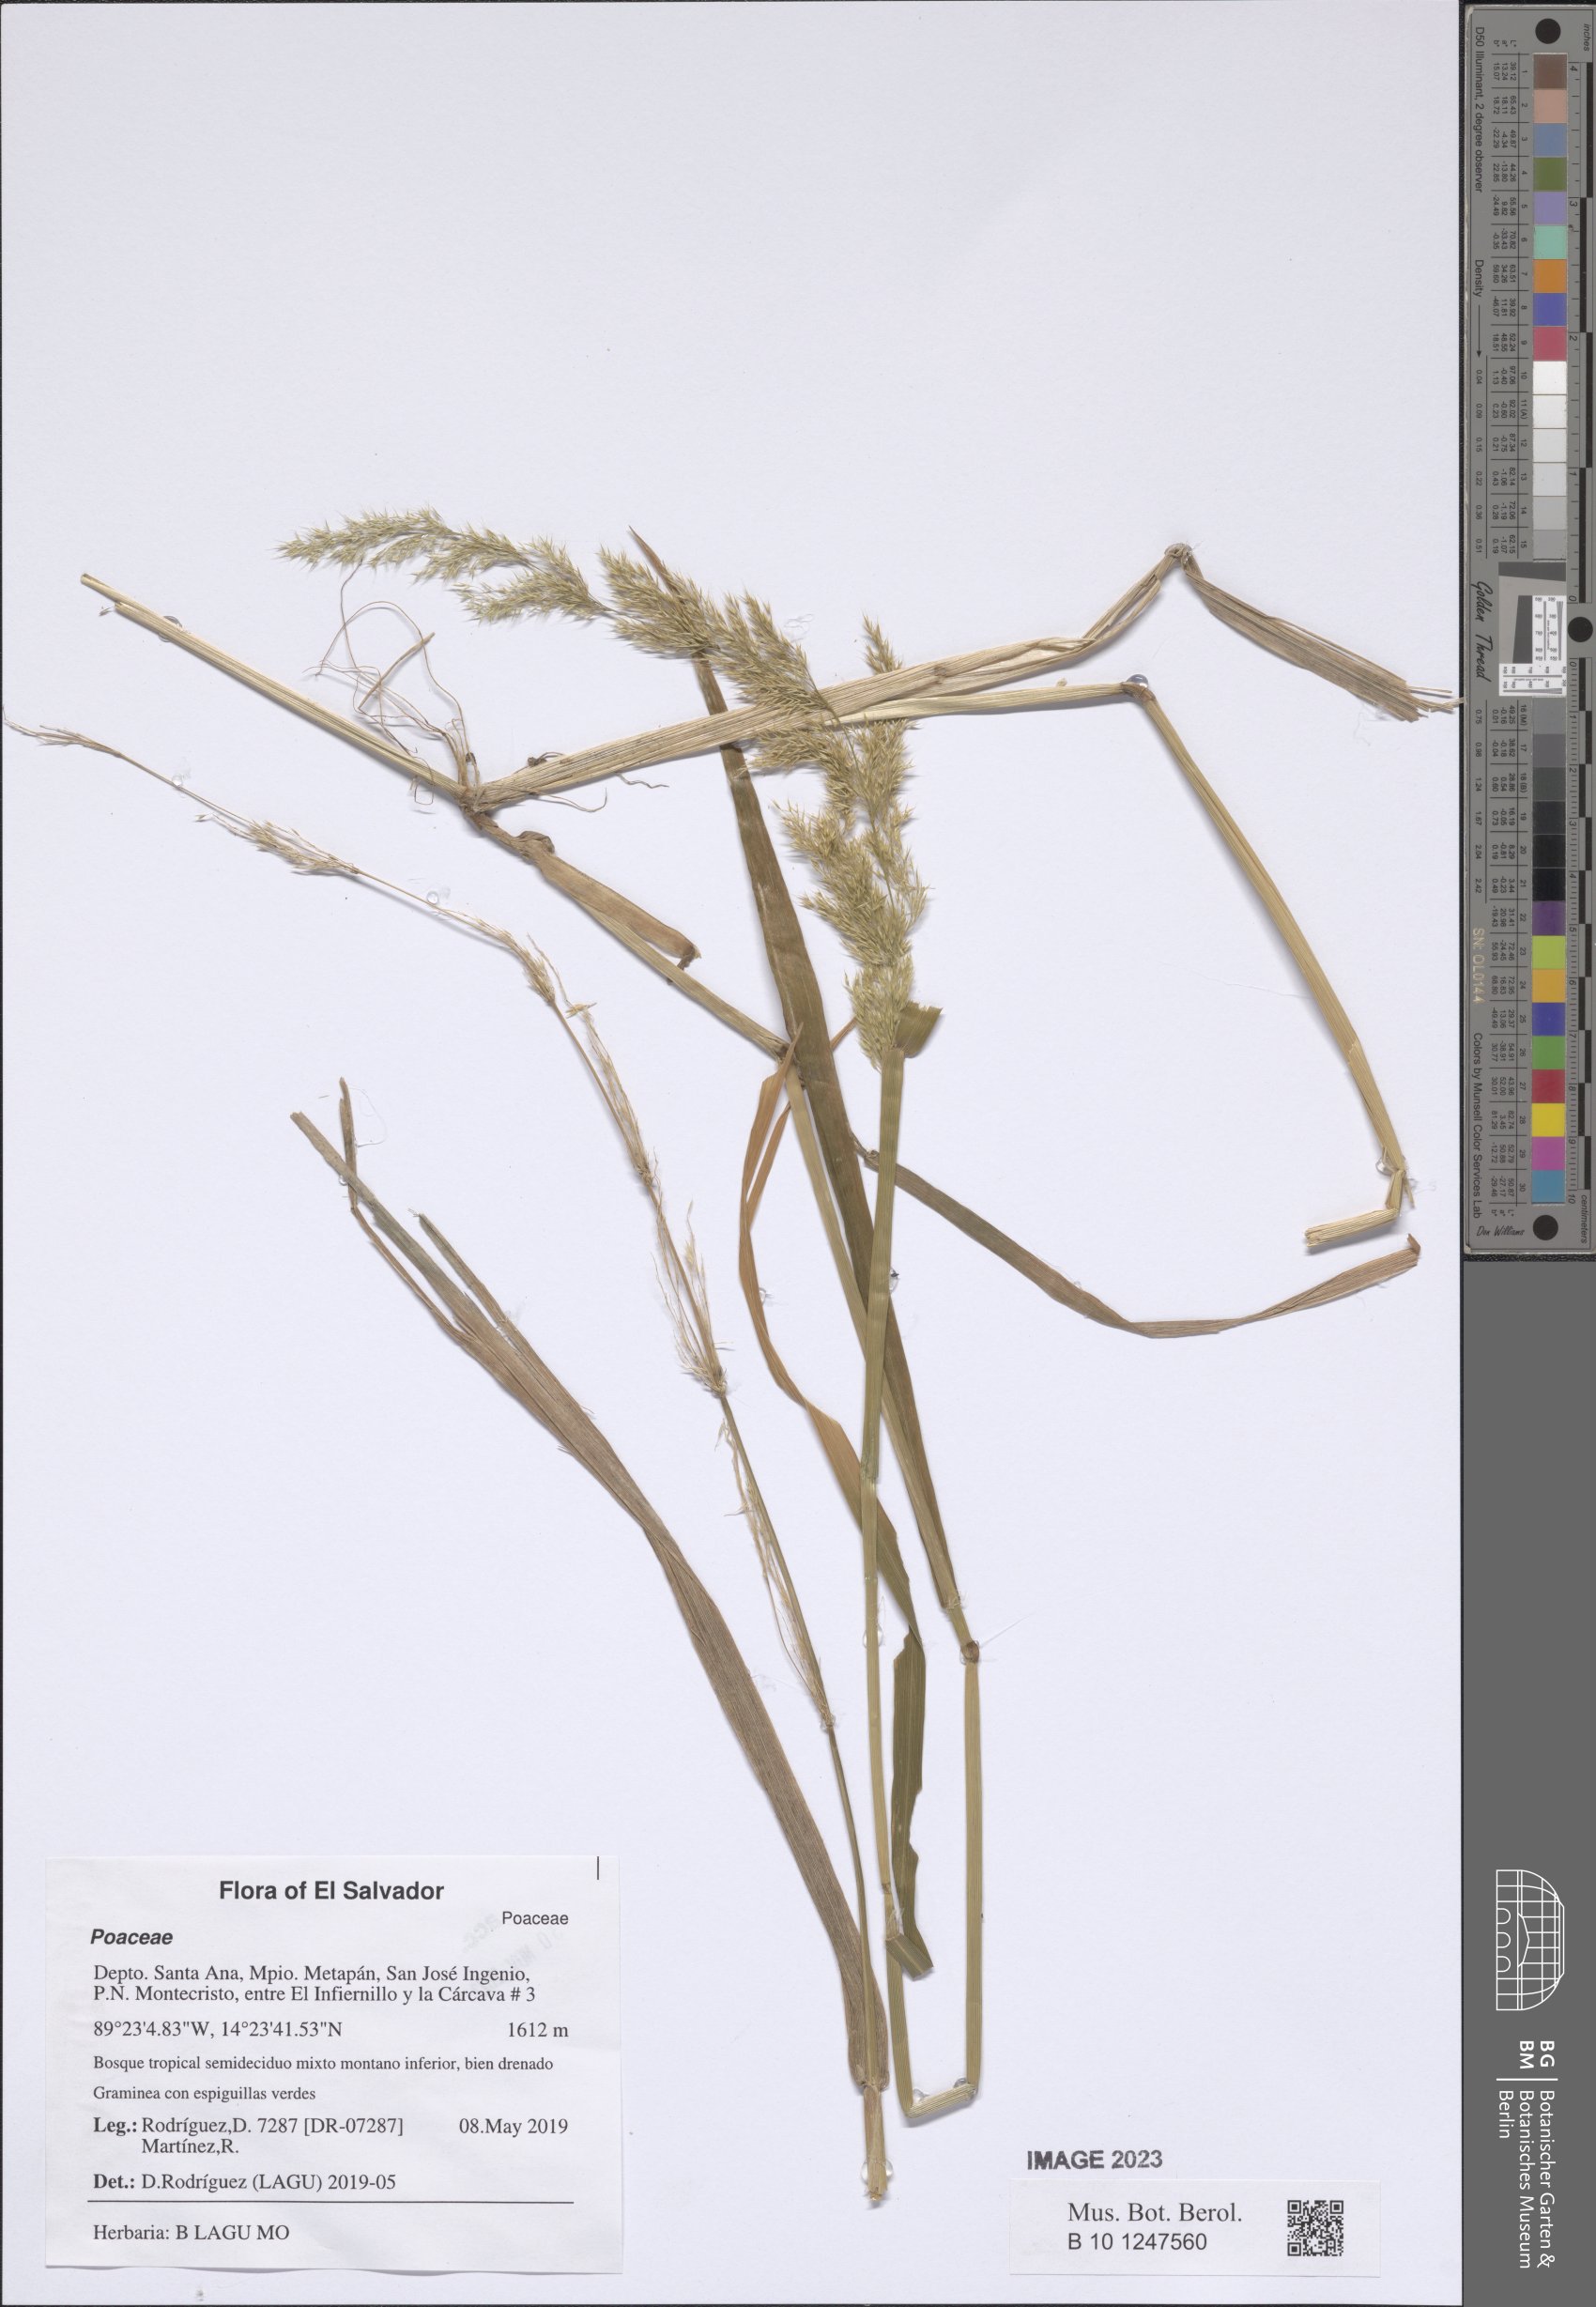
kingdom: Plantae
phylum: Tracheophyta
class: Liliopsida
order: Poales
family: Poaceae
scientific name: Poaceae
